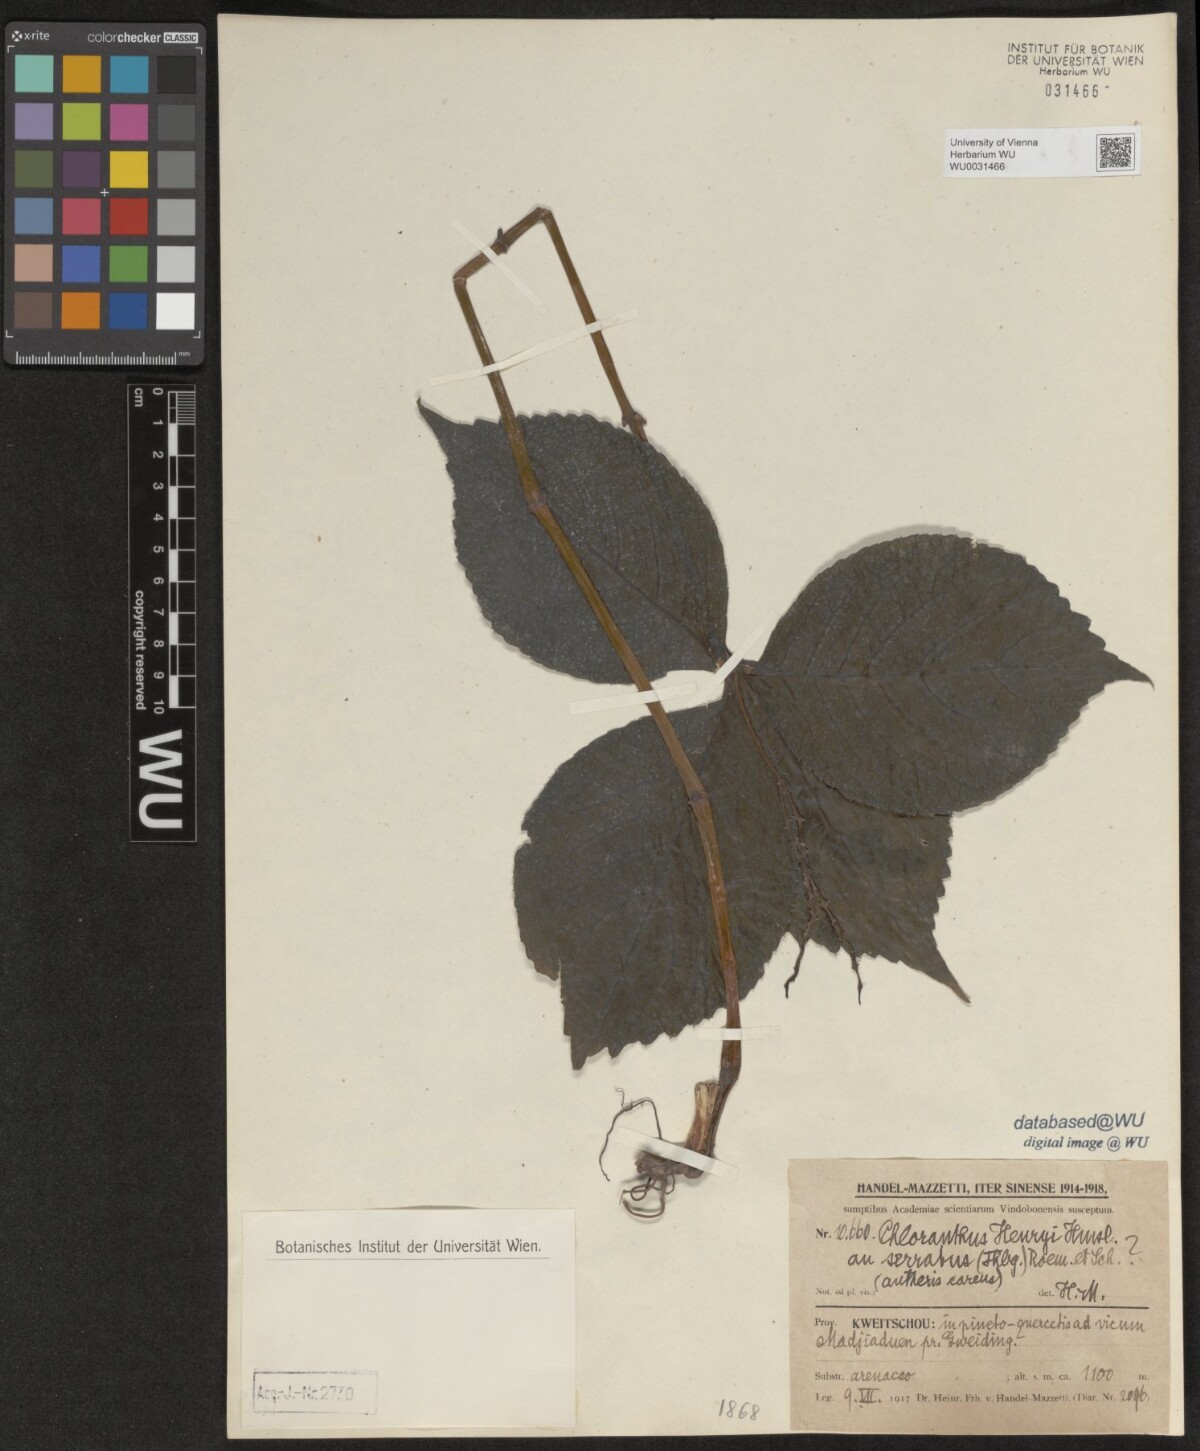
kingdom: Plantae
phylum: Tracheophyta
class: Magnoliopsida
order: Chloranthales
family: Chloranthaceae
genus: Chloranthus
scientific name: Chloranthus henryi
